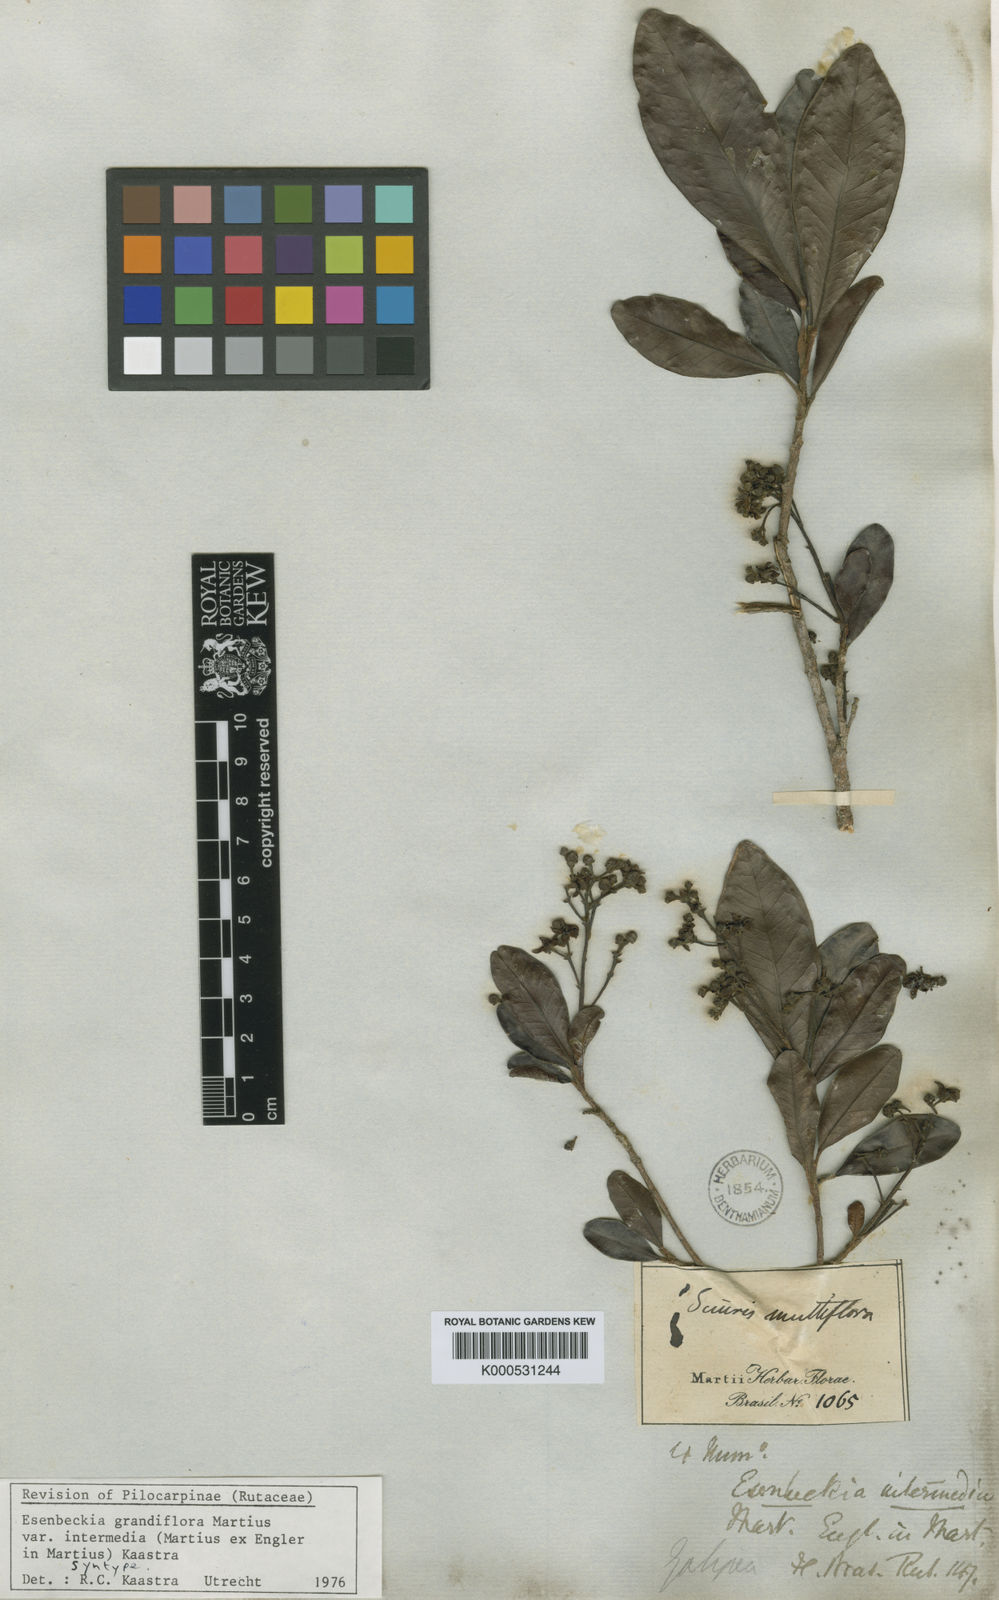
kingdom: Plantae
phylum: Tracheophyta
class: Magnoliopsida
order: Sapindales
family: Rutaceae
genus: Esenbeckia
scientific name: Esenbeckia grandiflora
